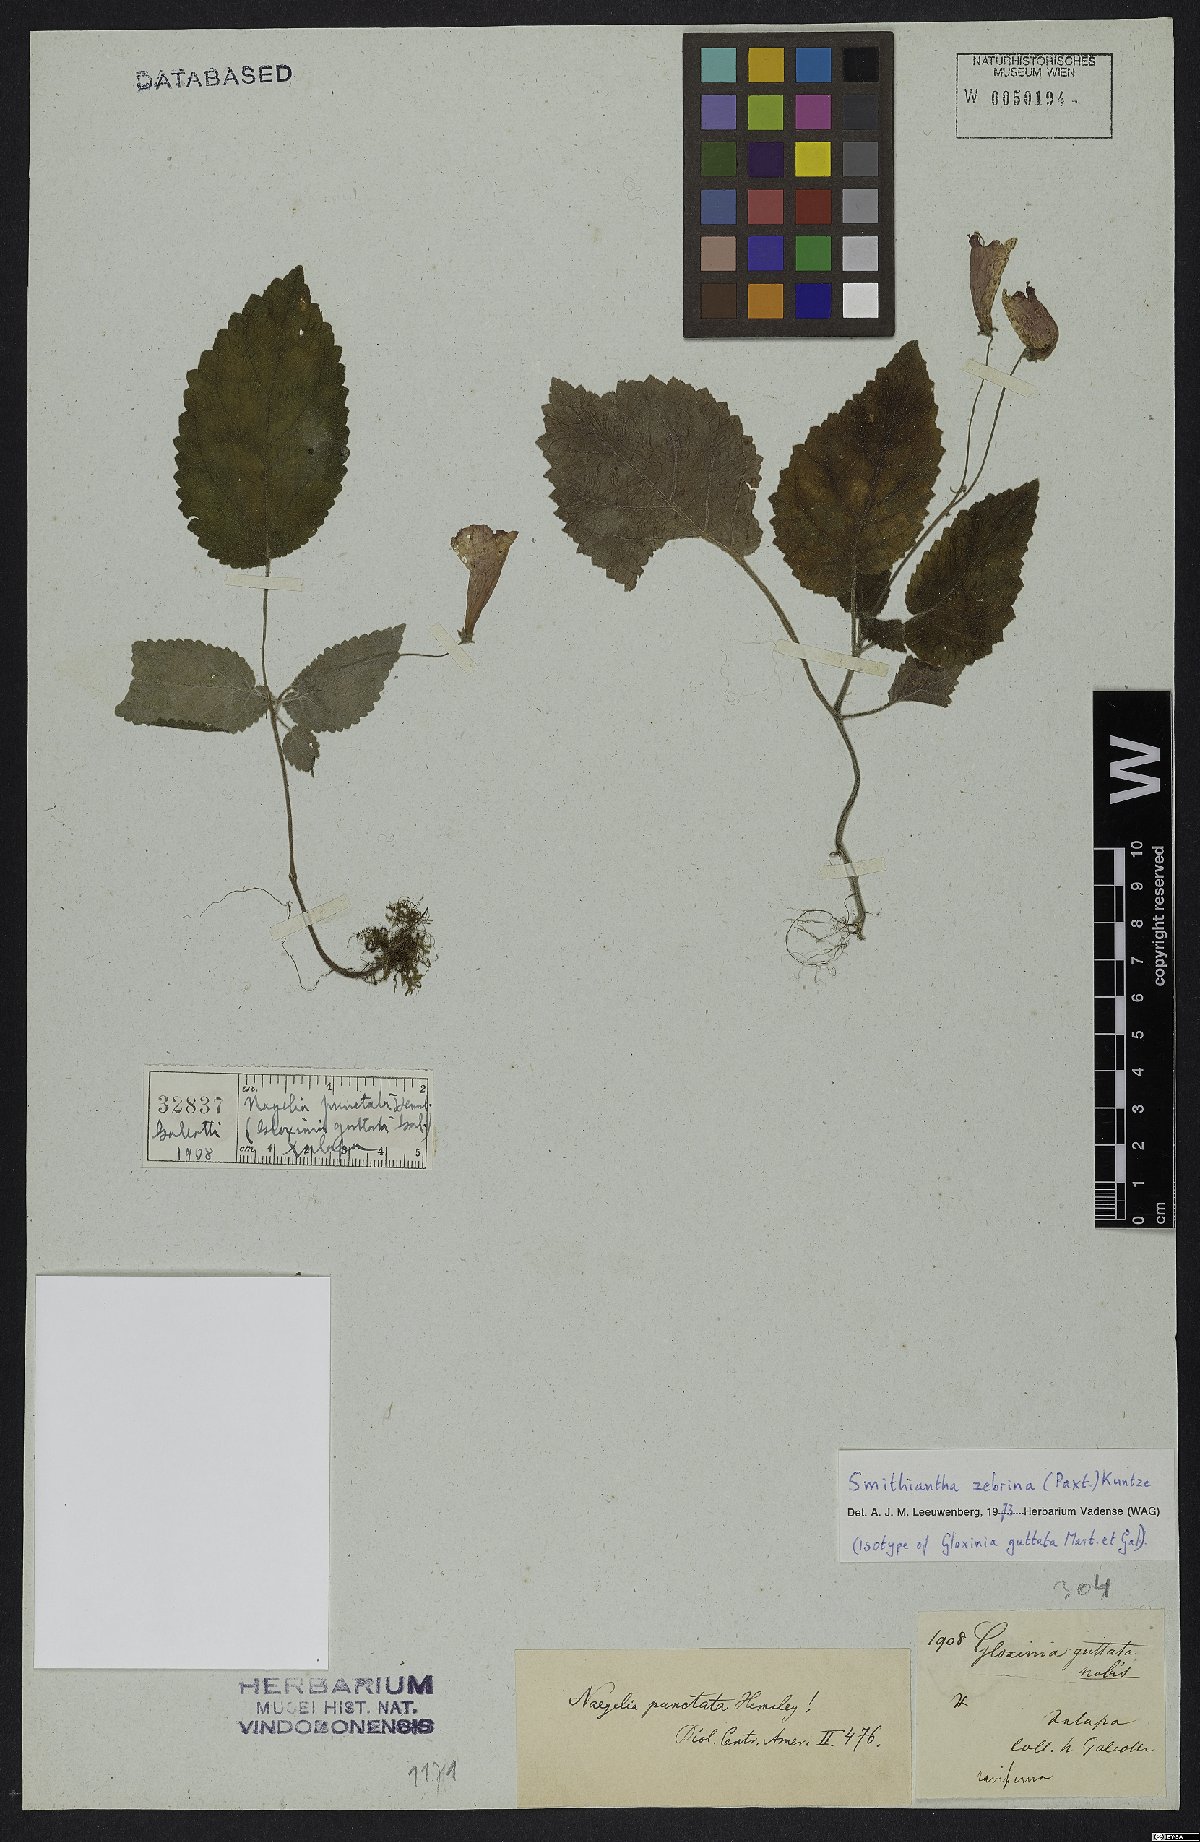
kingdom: Plantae
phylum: Tracheophyta
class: Magnoliopsida
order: Lamiales
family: Gesneriaceae
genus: Smithiantha
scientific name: Smithiantha zebrina
